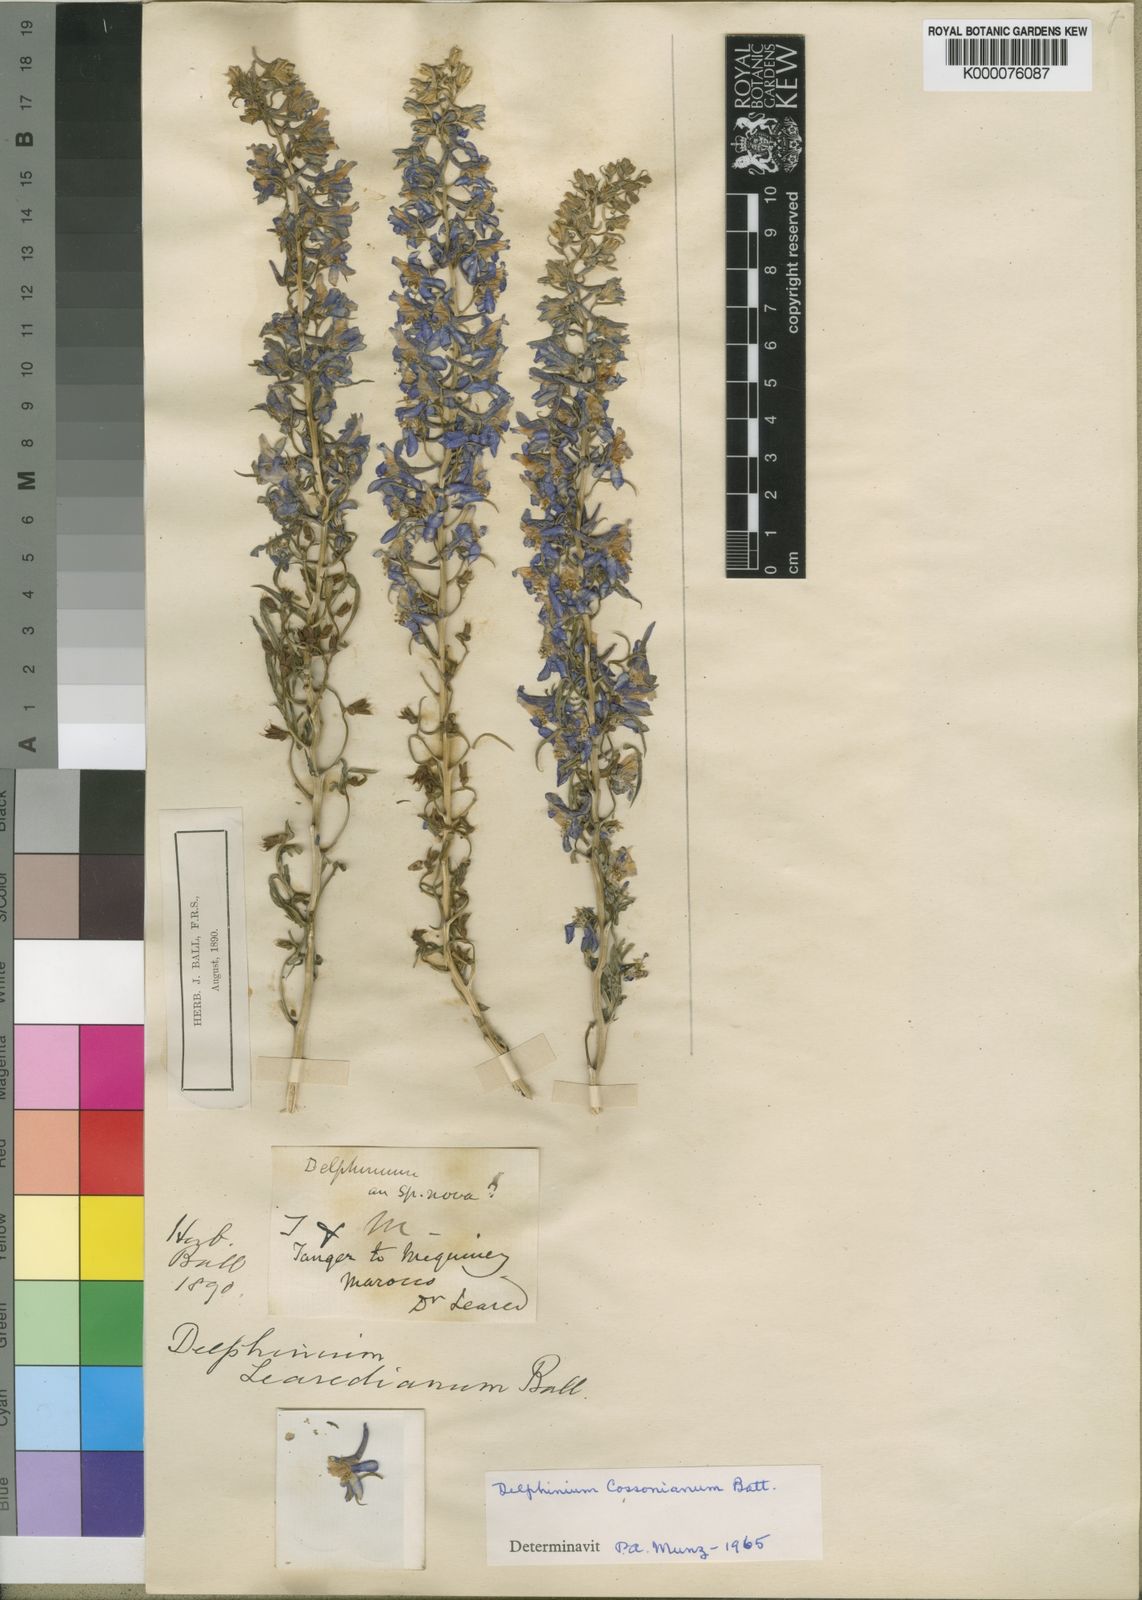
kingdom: Plantae
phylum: Tracheophyta
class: Magnoliopsida
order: Ranunculales
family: Ranunculaceae
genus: Delphinium
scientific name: Delphinium
